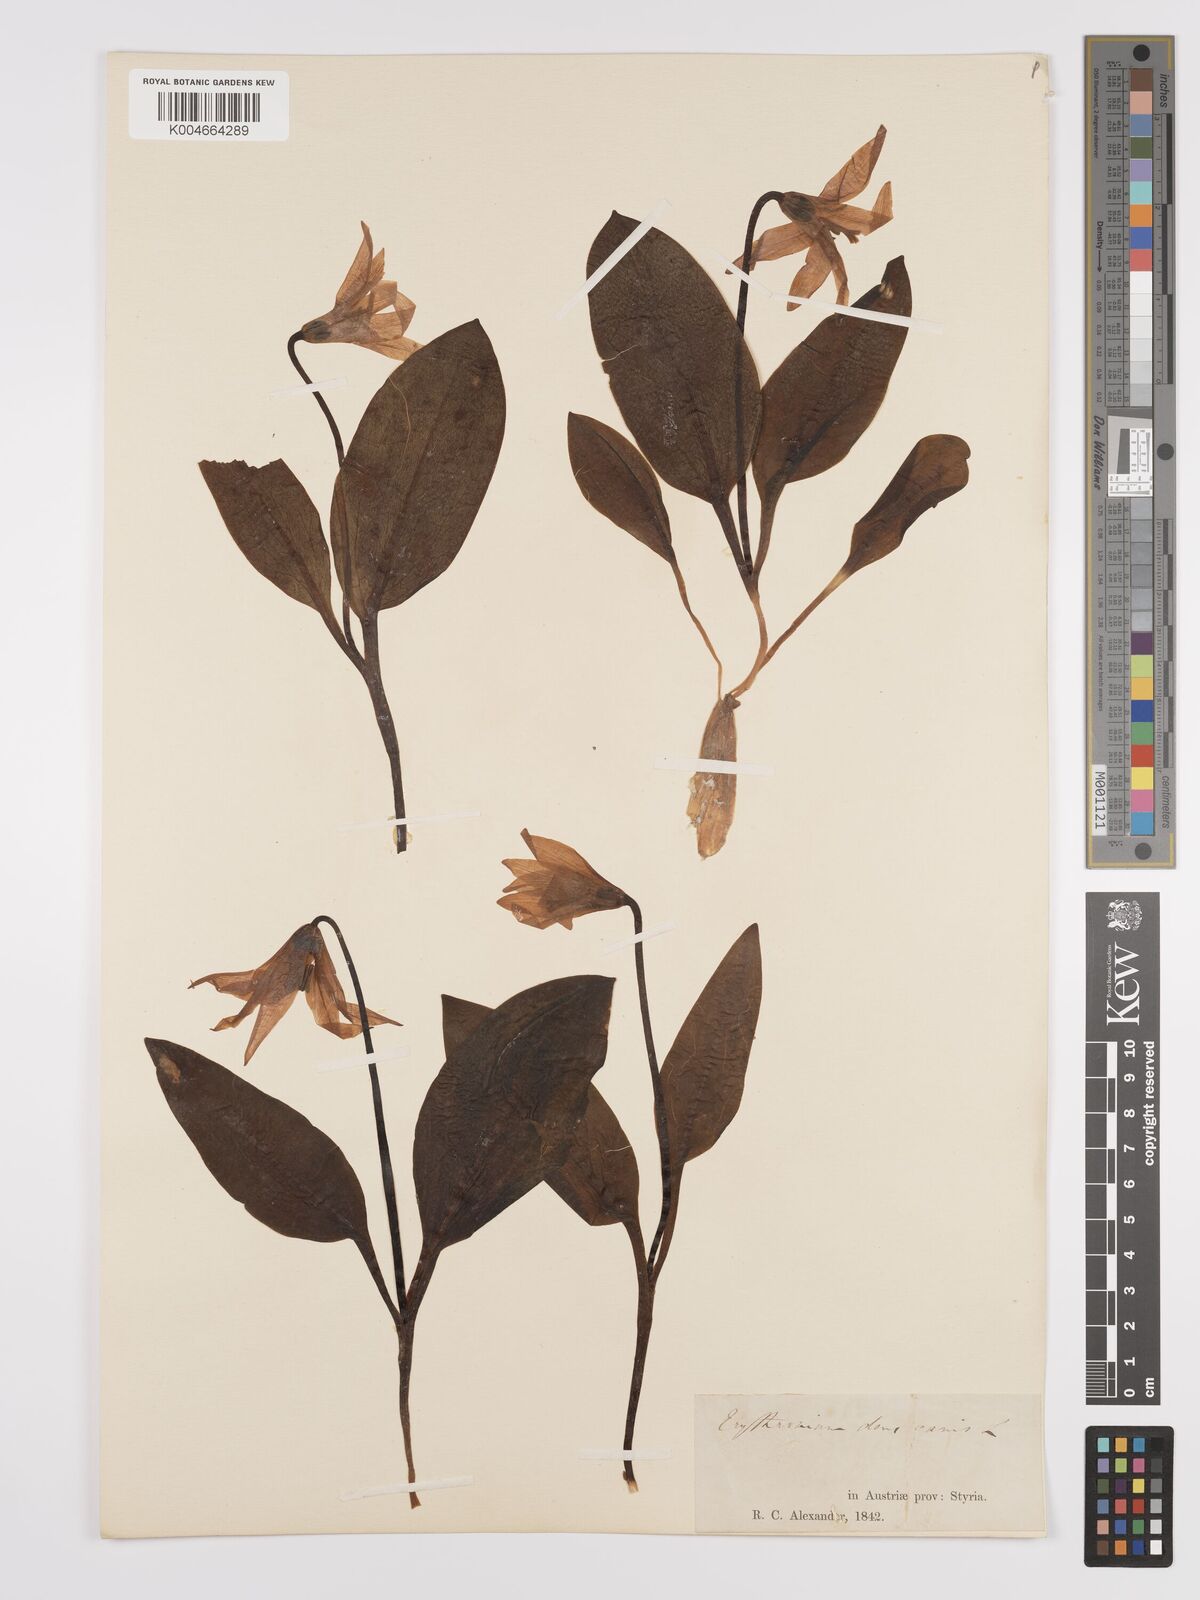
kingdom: Plantae
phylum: Tracheophyta
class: Liliopsida
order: Liliales
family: Liliaceae
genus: Erythronium
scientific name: Erythronium dens-canis
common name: Dog's-tooth-violet
